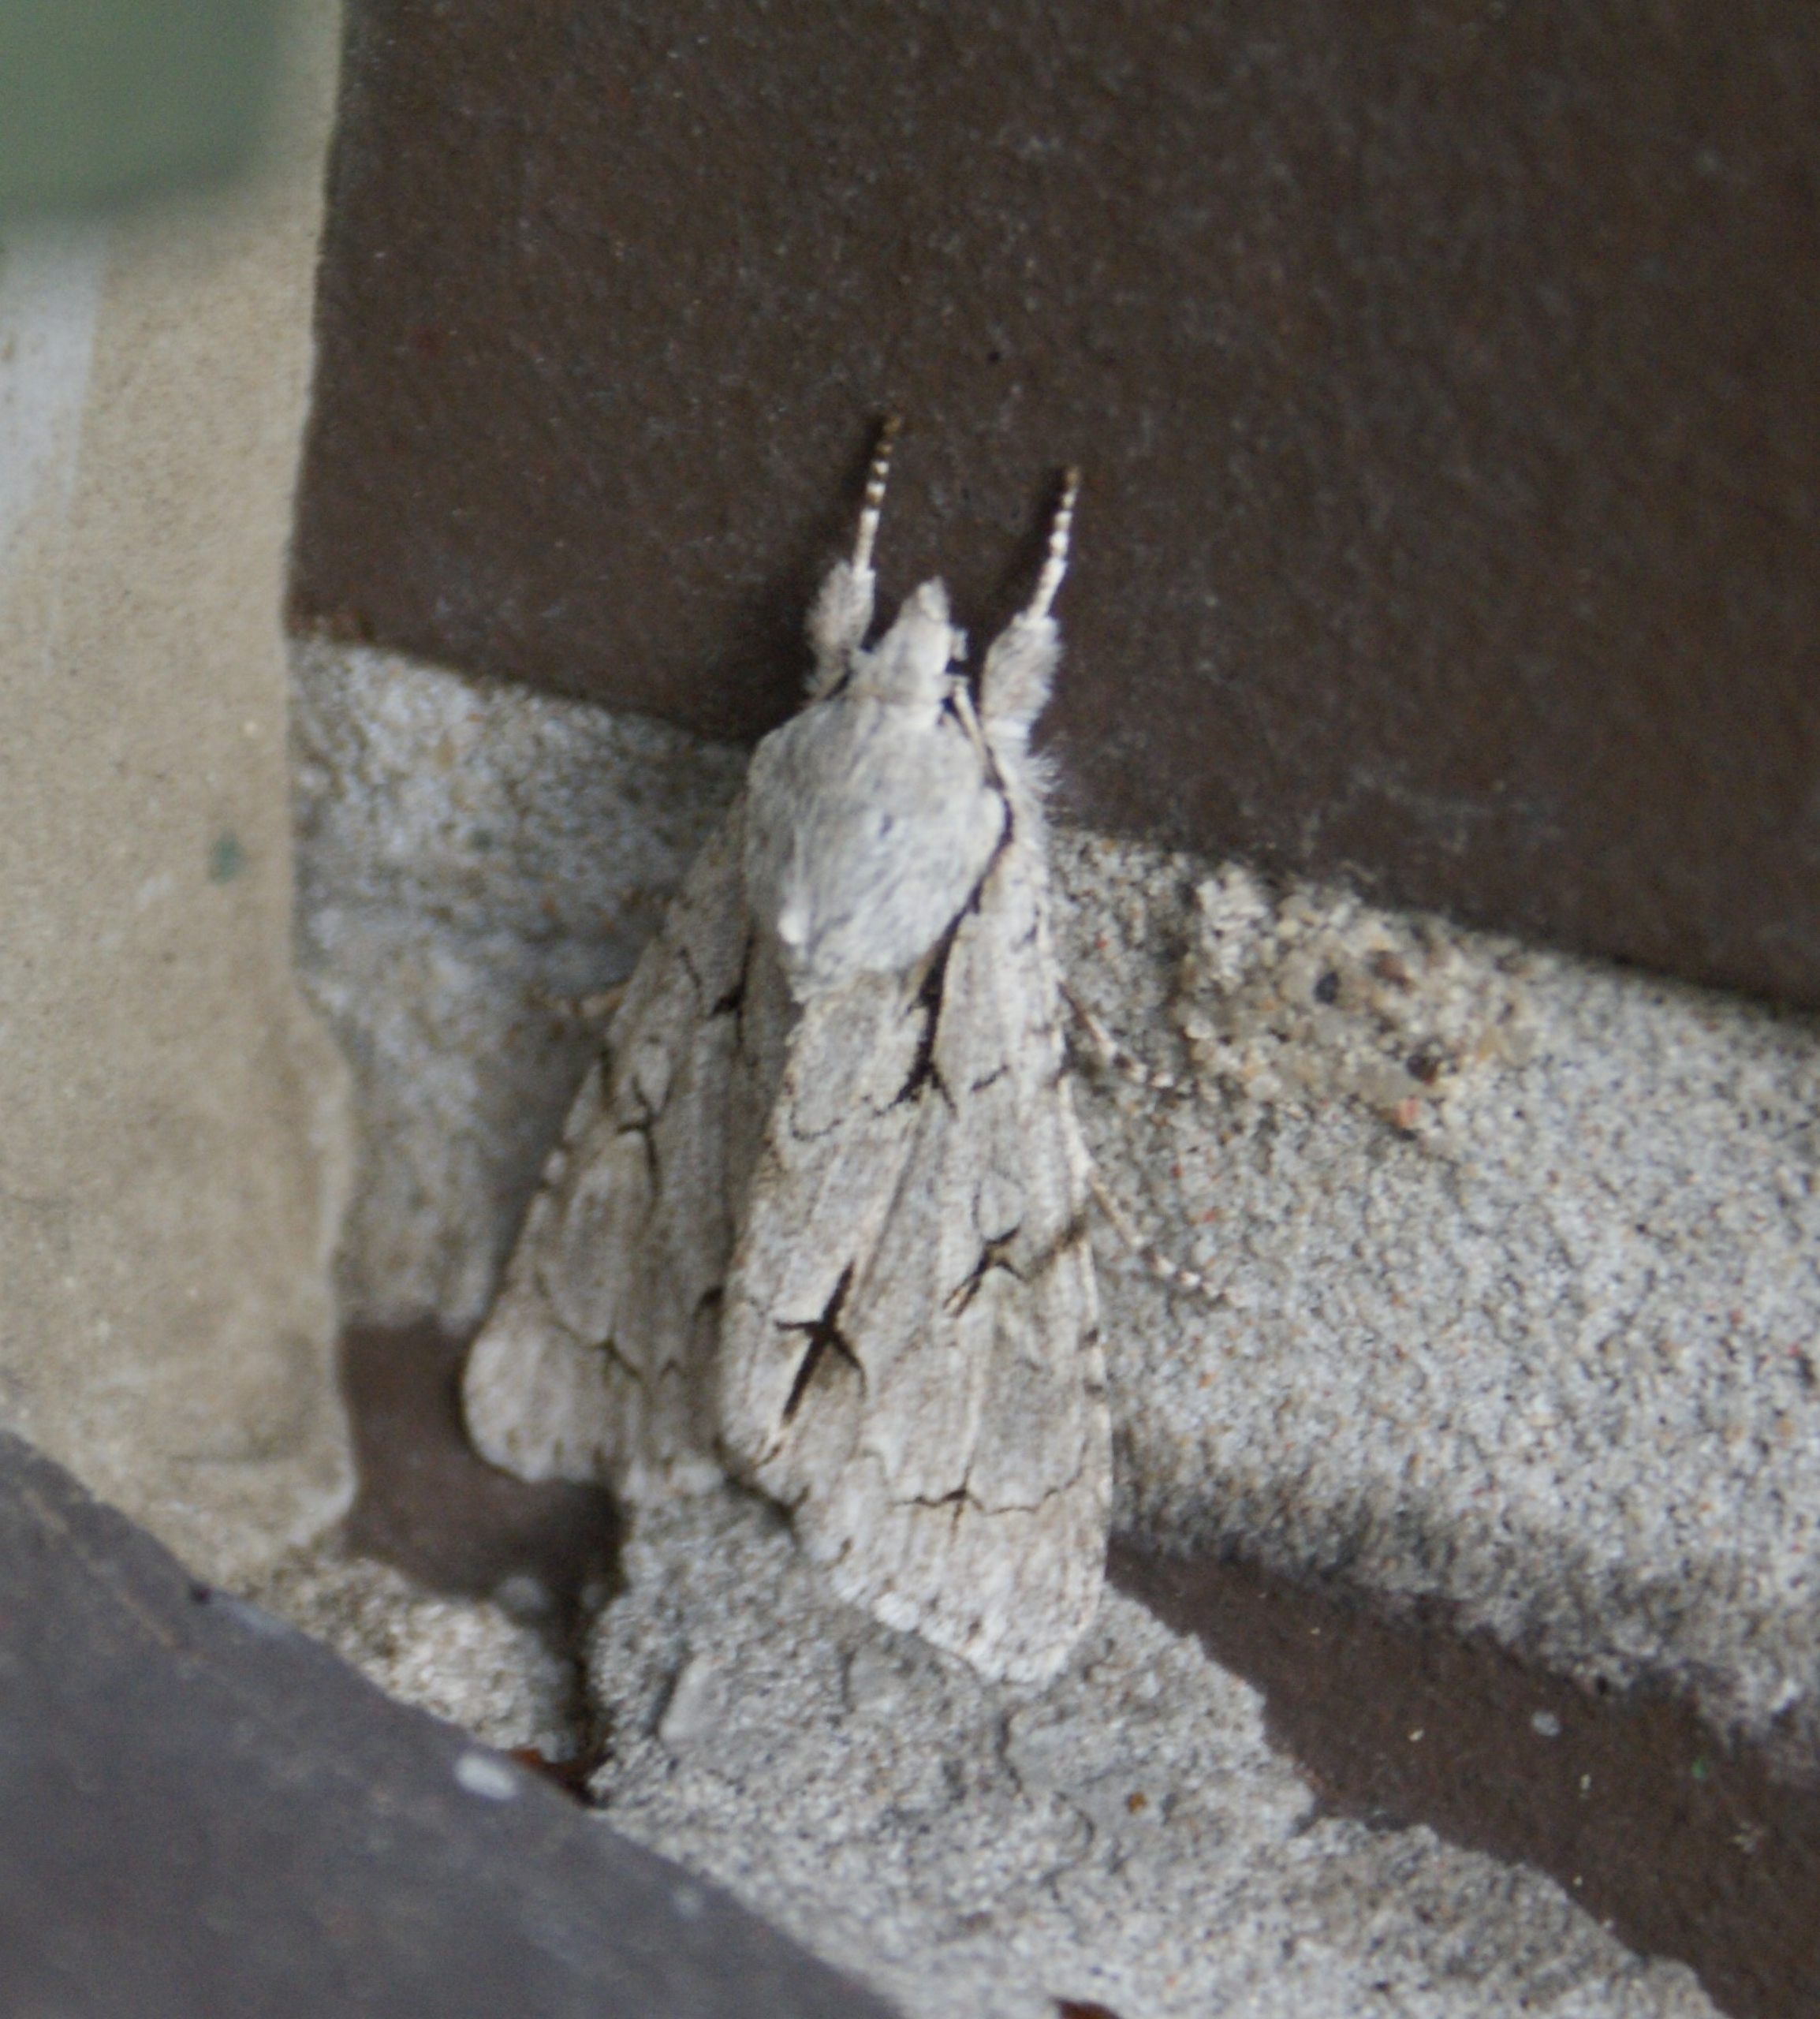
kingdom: Animalia
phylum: Arthropoda
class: Insecta
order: Lepidoptera
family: Noctuidae
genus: Acronicta
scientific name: Acronicta psi
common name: Psi-ugle
